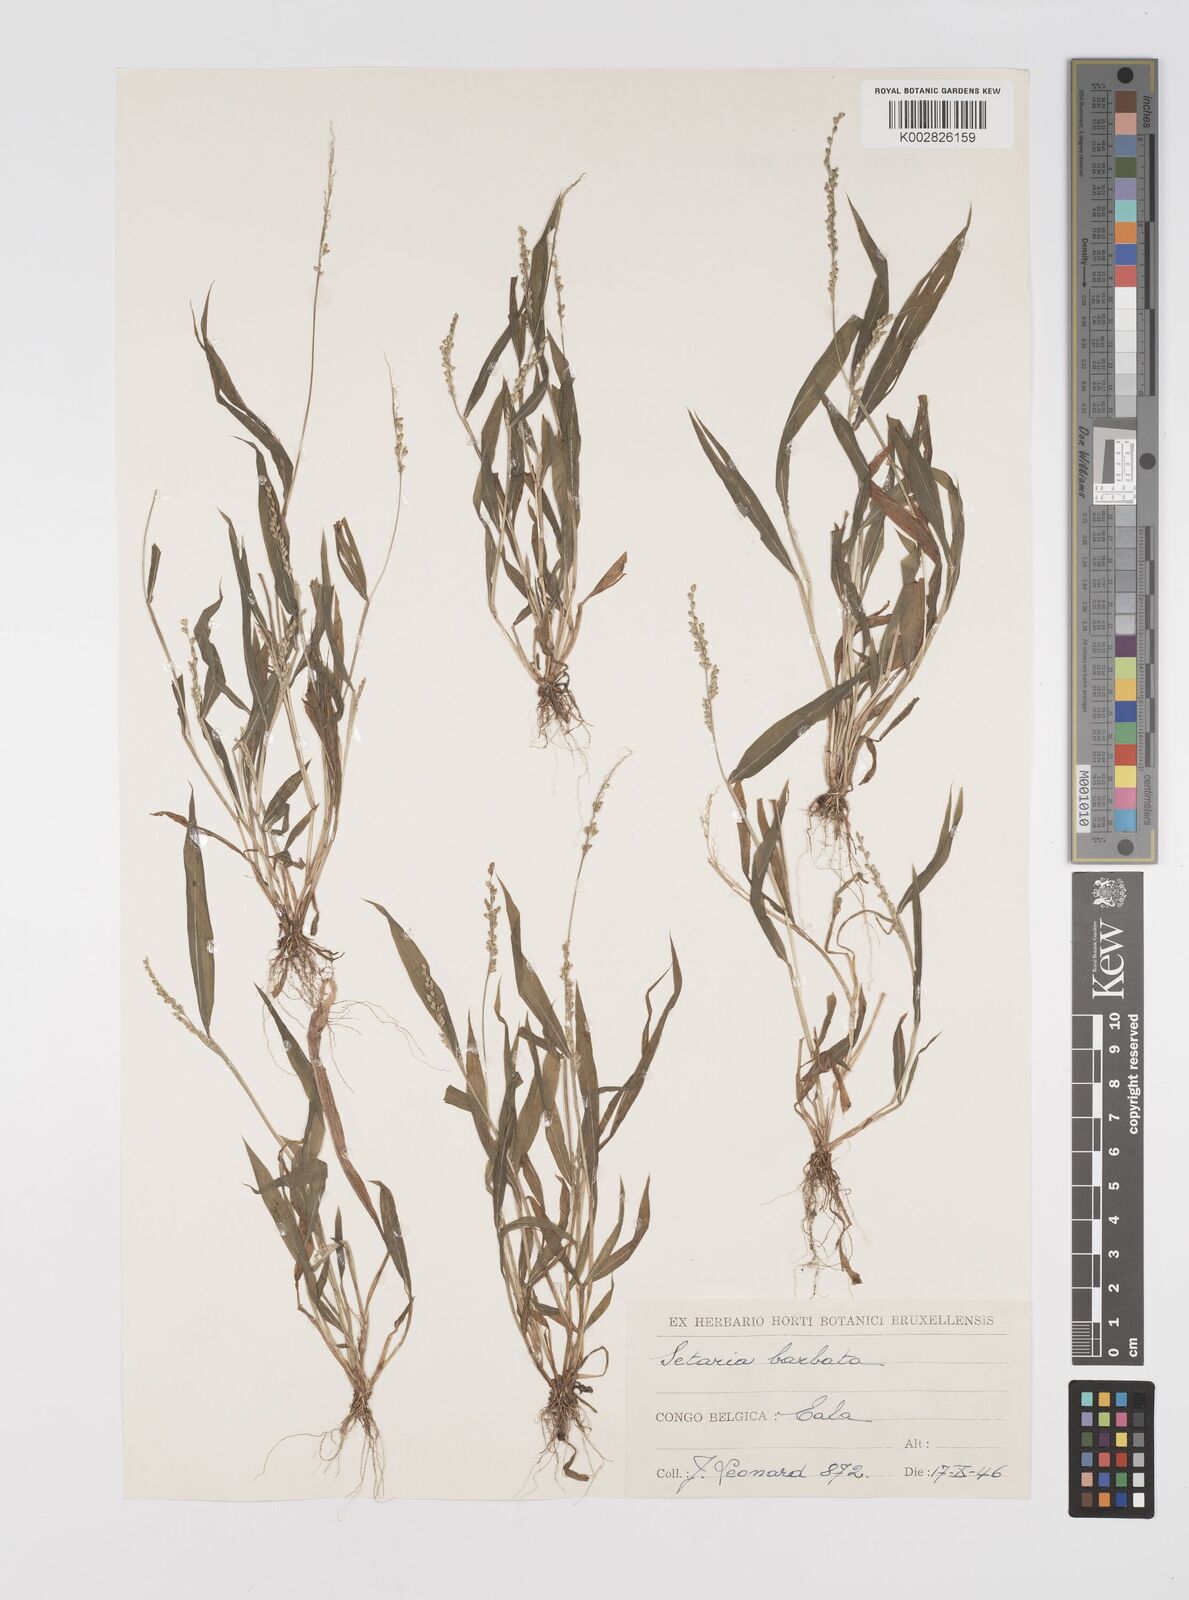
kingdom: Plantae
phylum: Tracheophyta
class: Liliopsida
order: Poales
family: Poaceae
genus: Setaria
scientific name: Setaria barbata
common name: East indian bristlegrass
